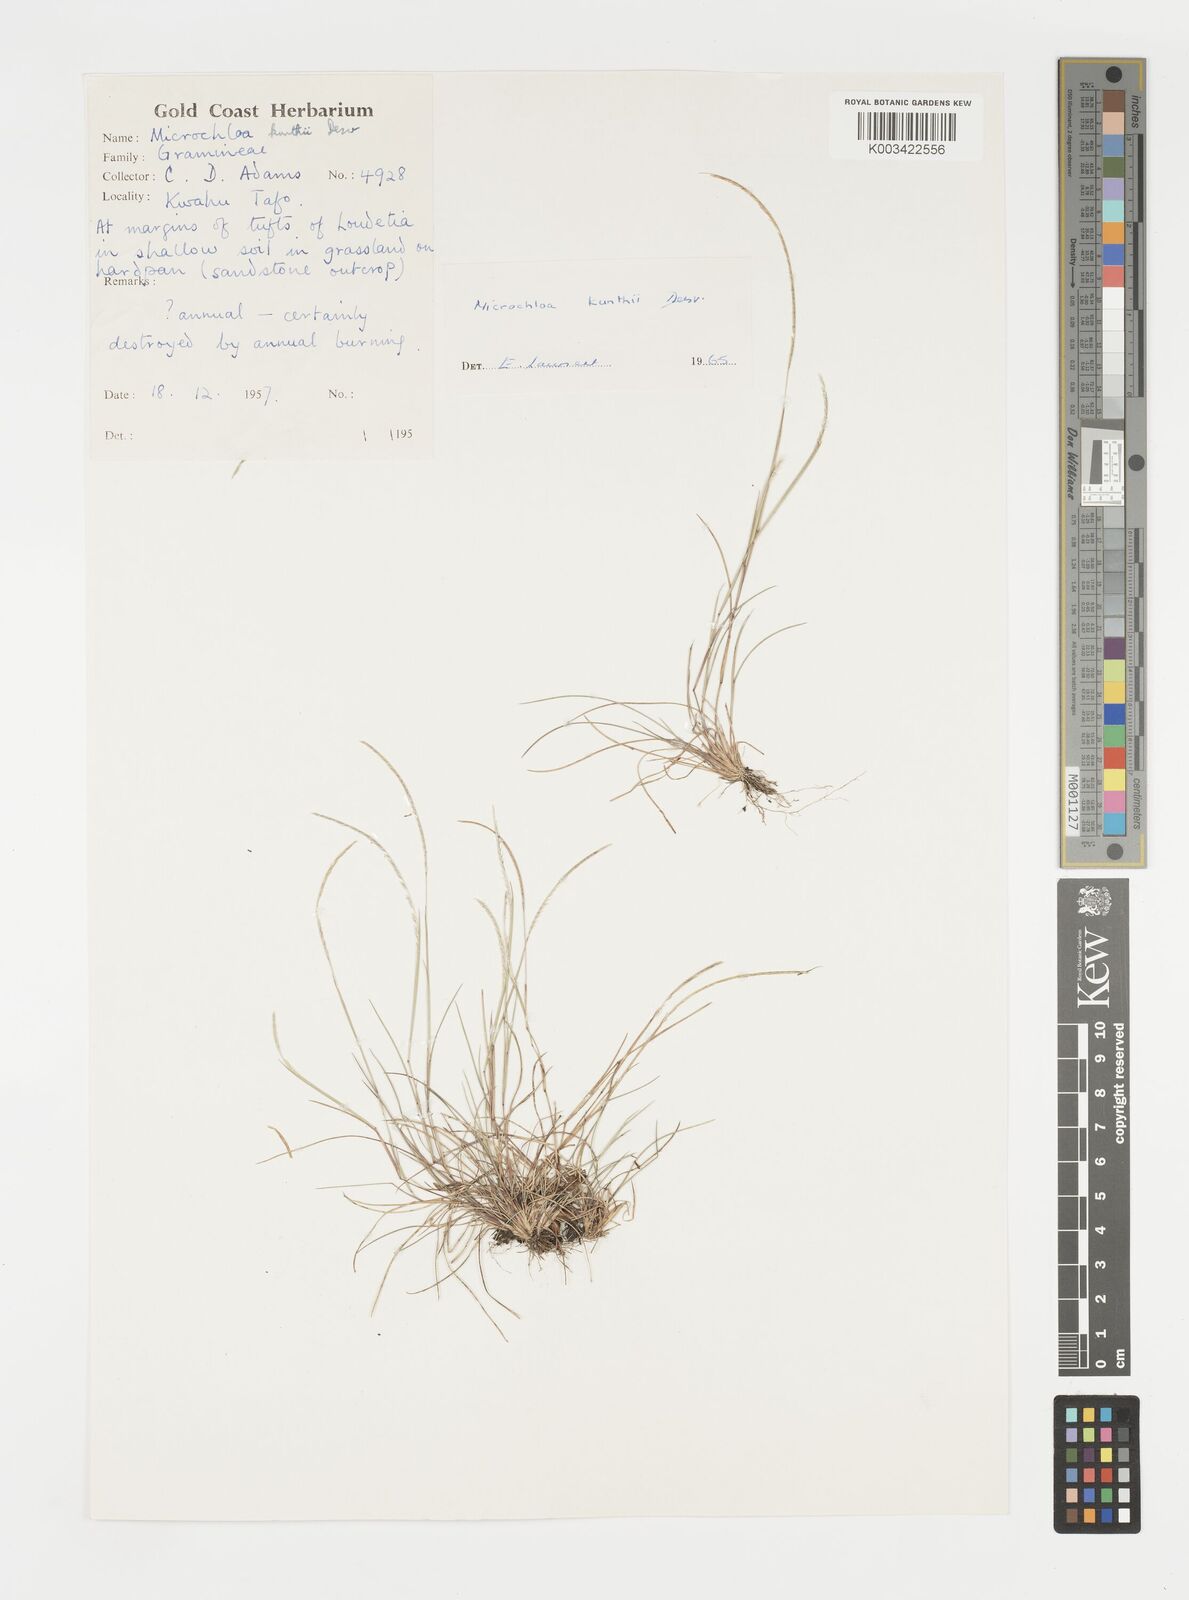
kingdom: Plantae
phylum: Tracheophyta
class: Liliopsida
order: Poales
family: Poaceae
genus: Microchloa
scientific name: Microchloa kunthii
